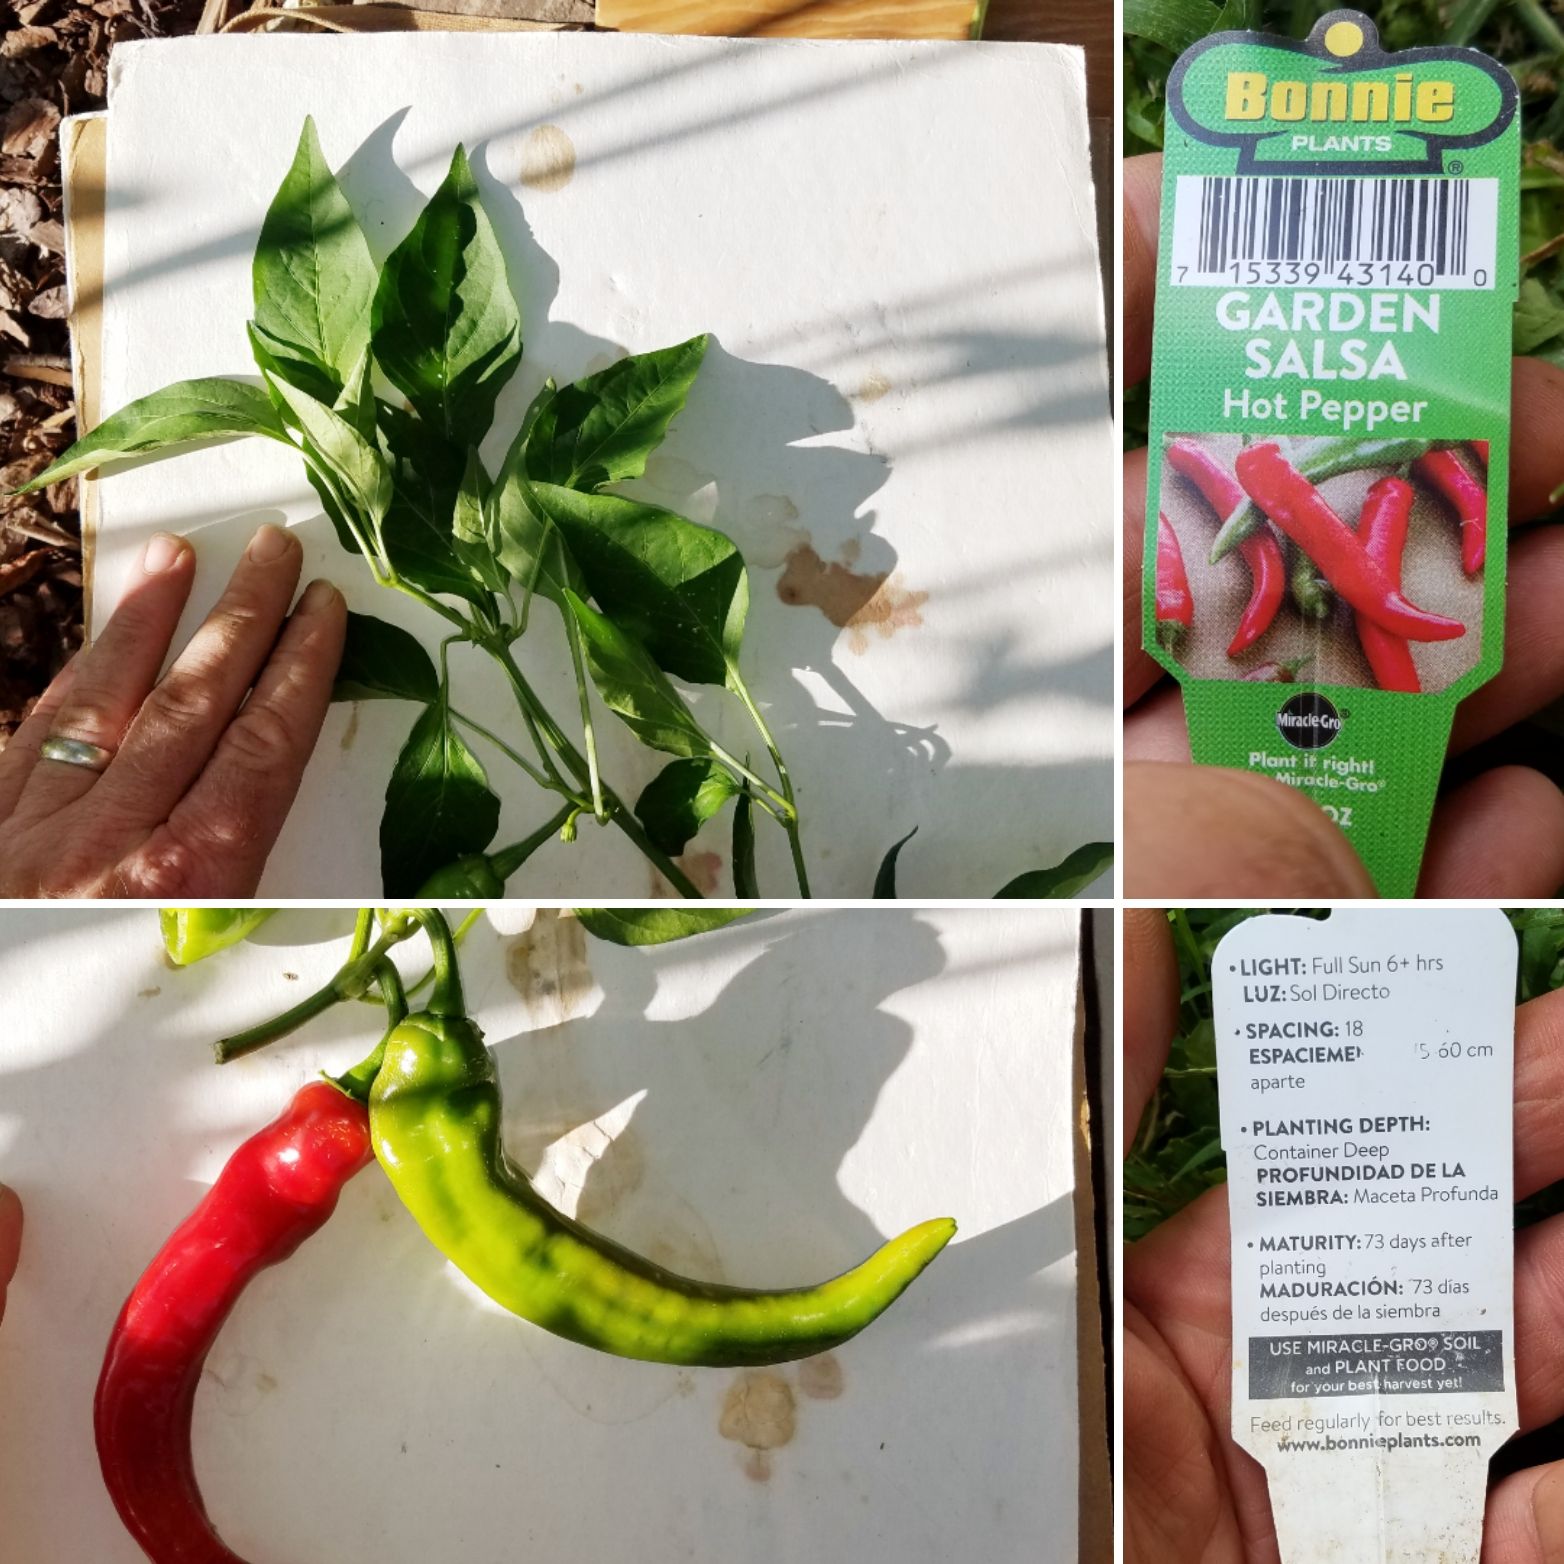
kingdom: Plantae
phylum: Tracheophyta
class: Magnoliopsida
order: Solanales
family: Solanaceae
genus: Capsicum
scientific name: Capsicum annuum
